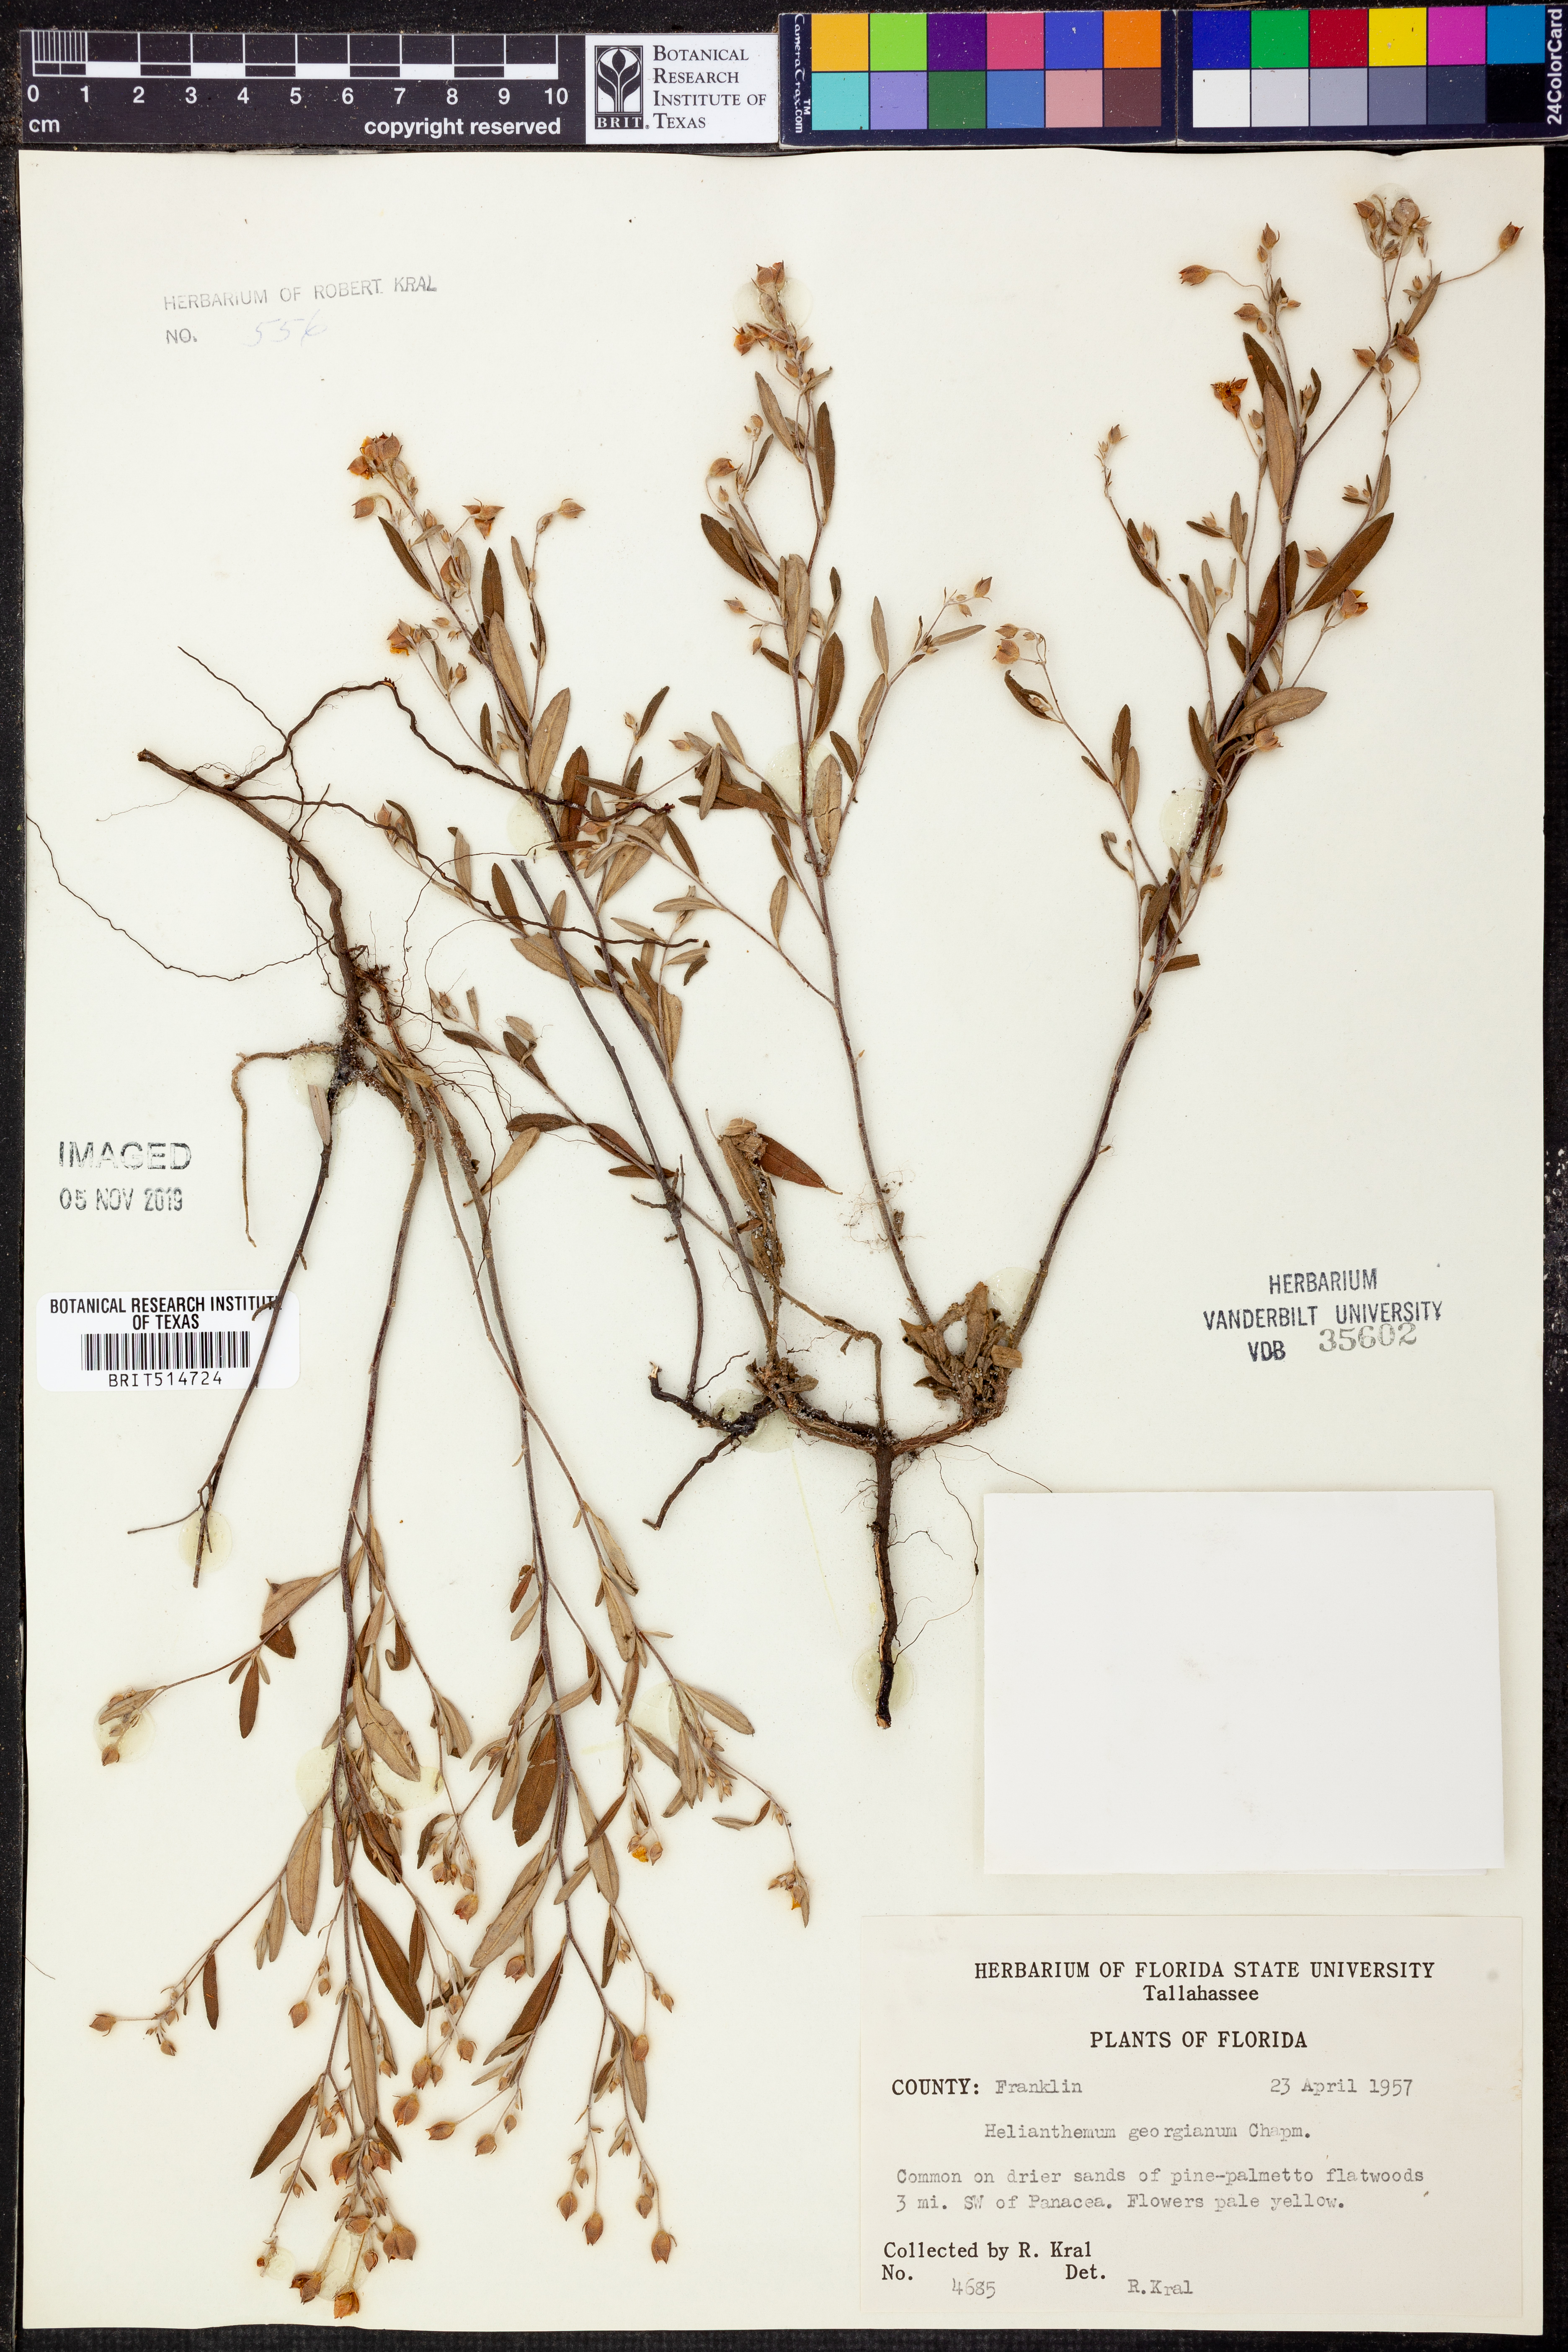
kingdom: Plantae
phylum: Tracheophyta
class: Magnoliopsida
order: Malvales
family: Cistaceae
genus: Crocanthemum
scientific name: Crocanthemum georgianum
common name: Georgia frostweed
